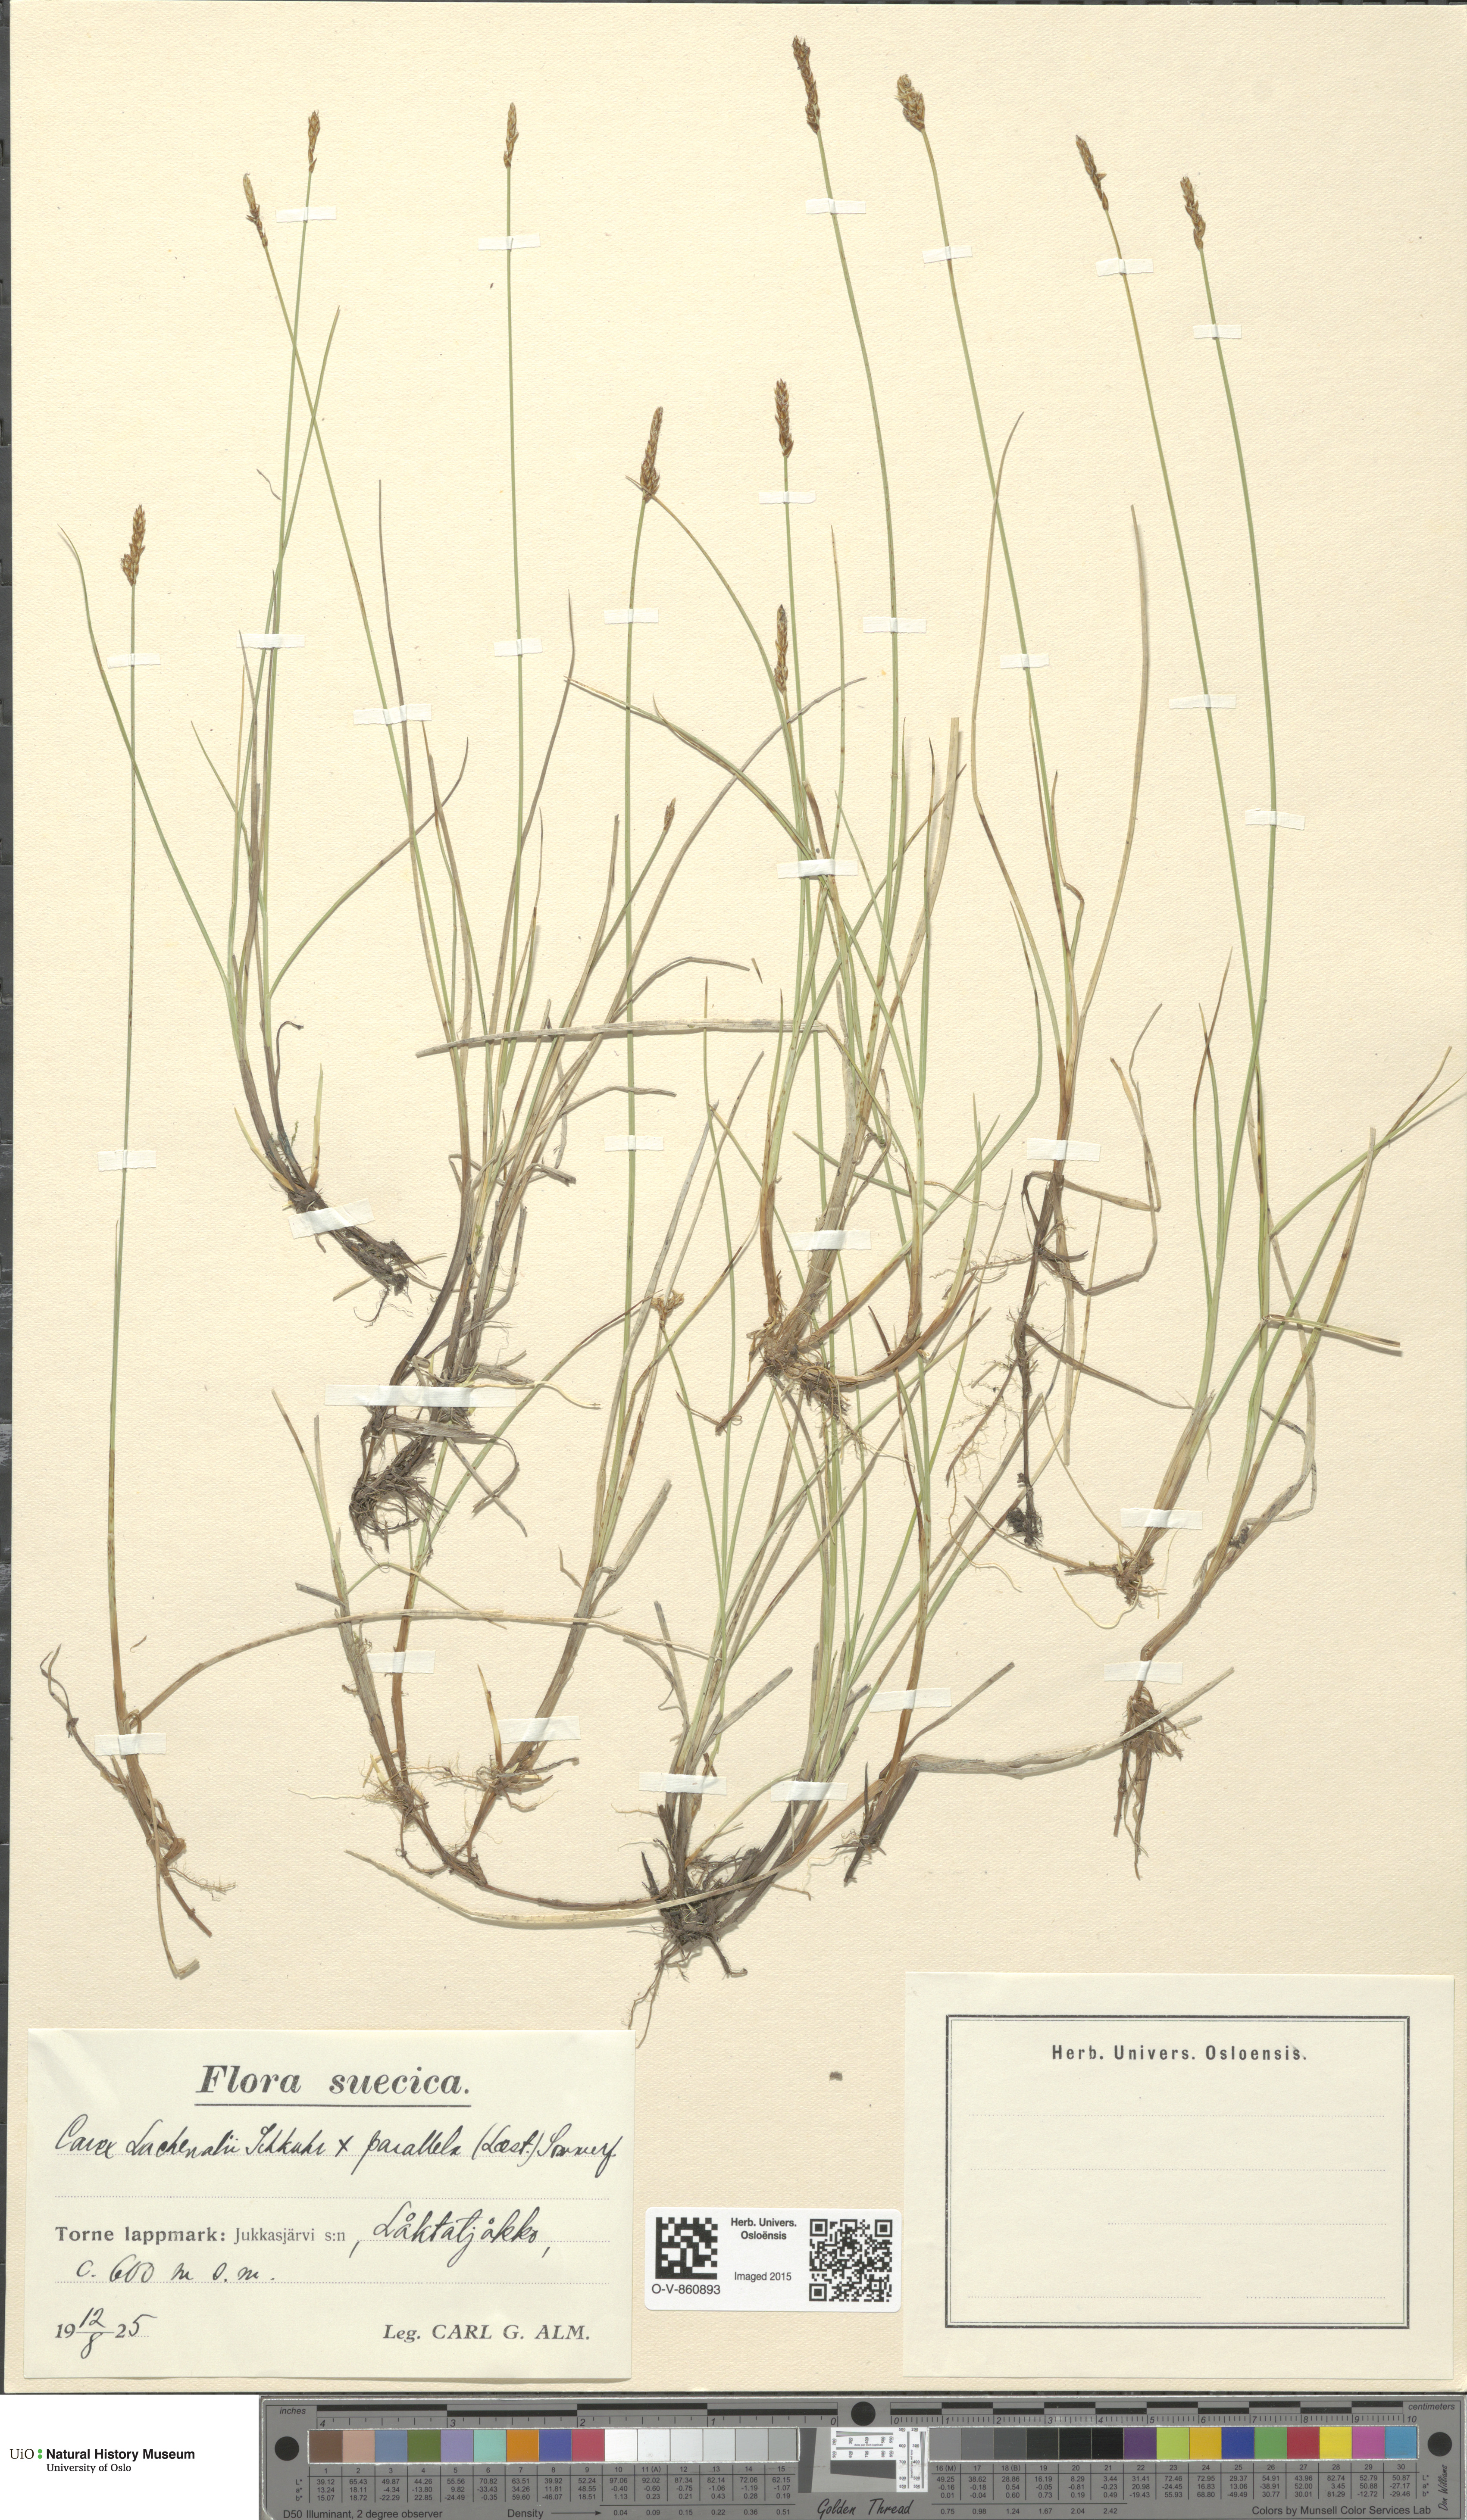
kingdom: Plantae
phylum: Tracheophyta
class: Liliopsida
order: Poales
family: Cyperaceae
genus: Carex
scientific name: Carex
